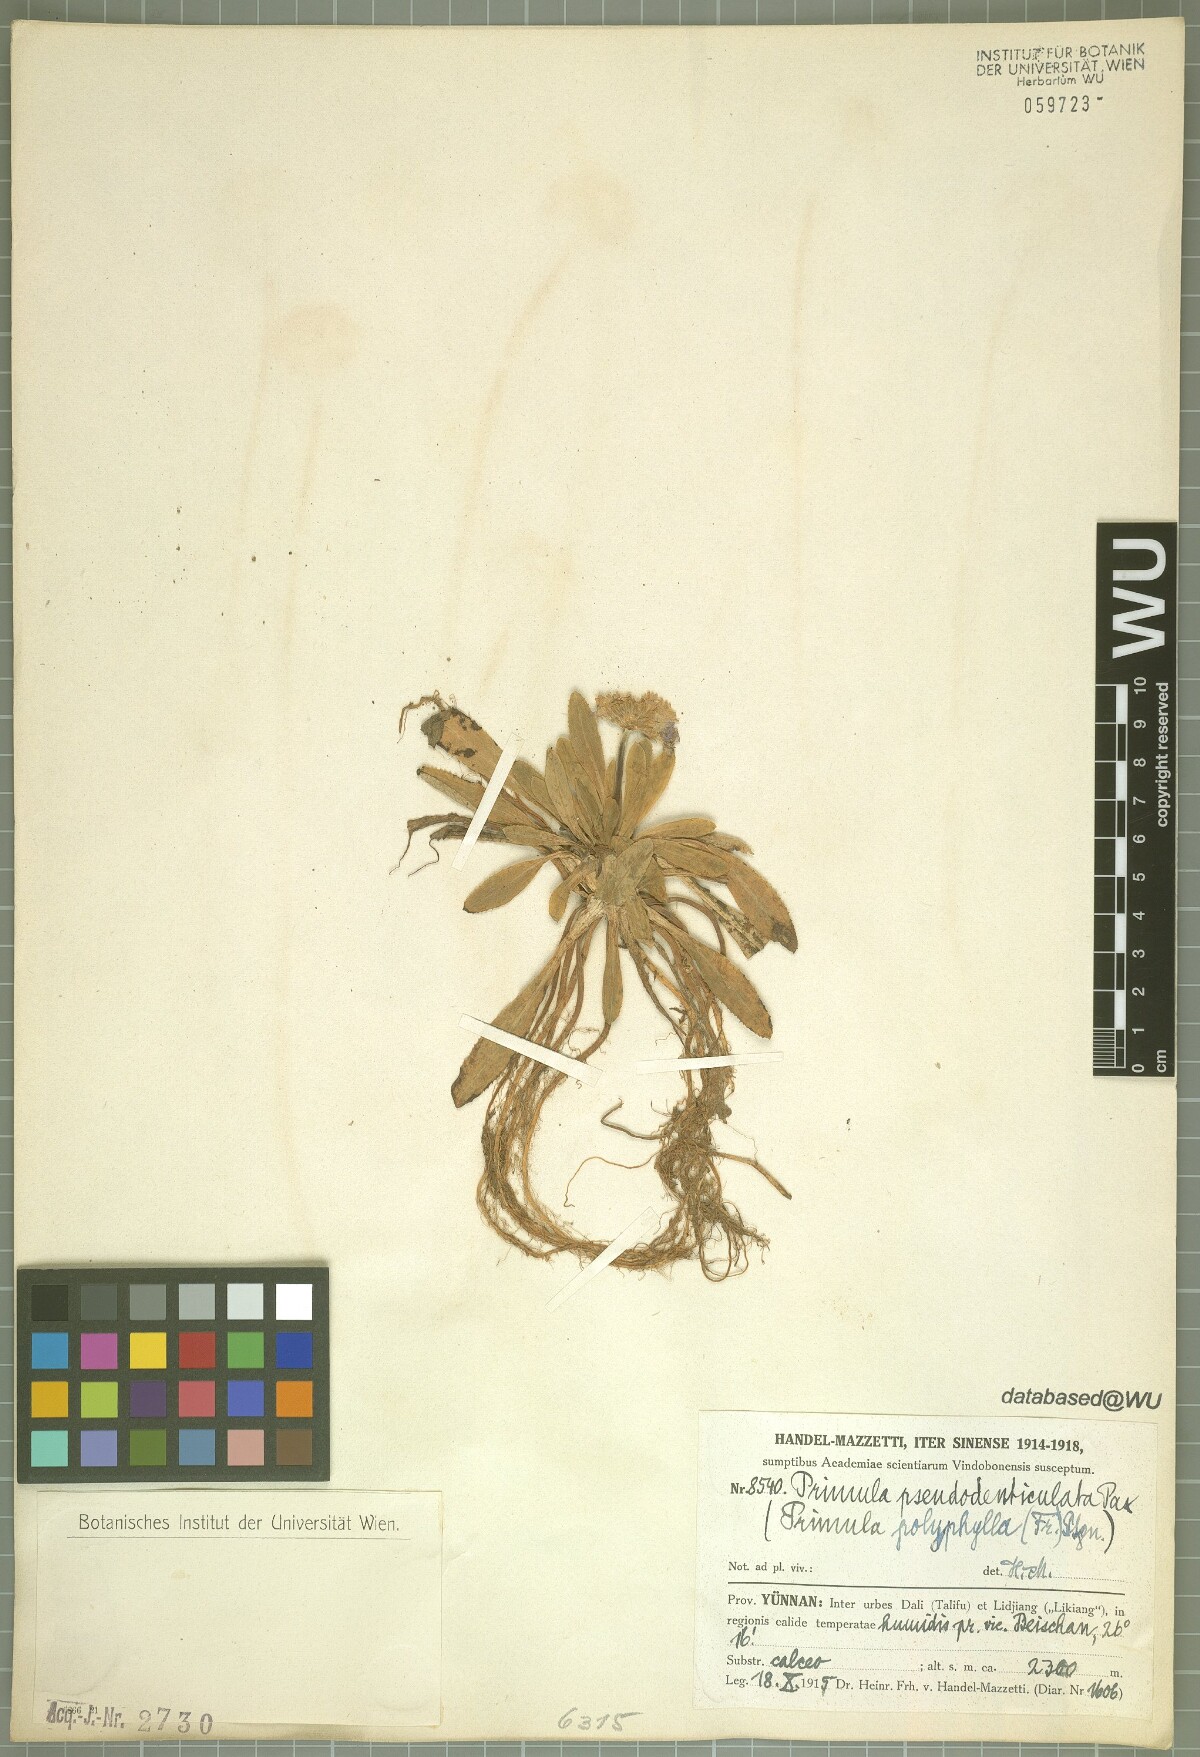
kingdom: Plantae
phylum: Tracheophyta
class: Magnoliopsida
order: Ericales
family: Primulaceae
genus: Primula
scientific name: Primula pseudodenticulata
